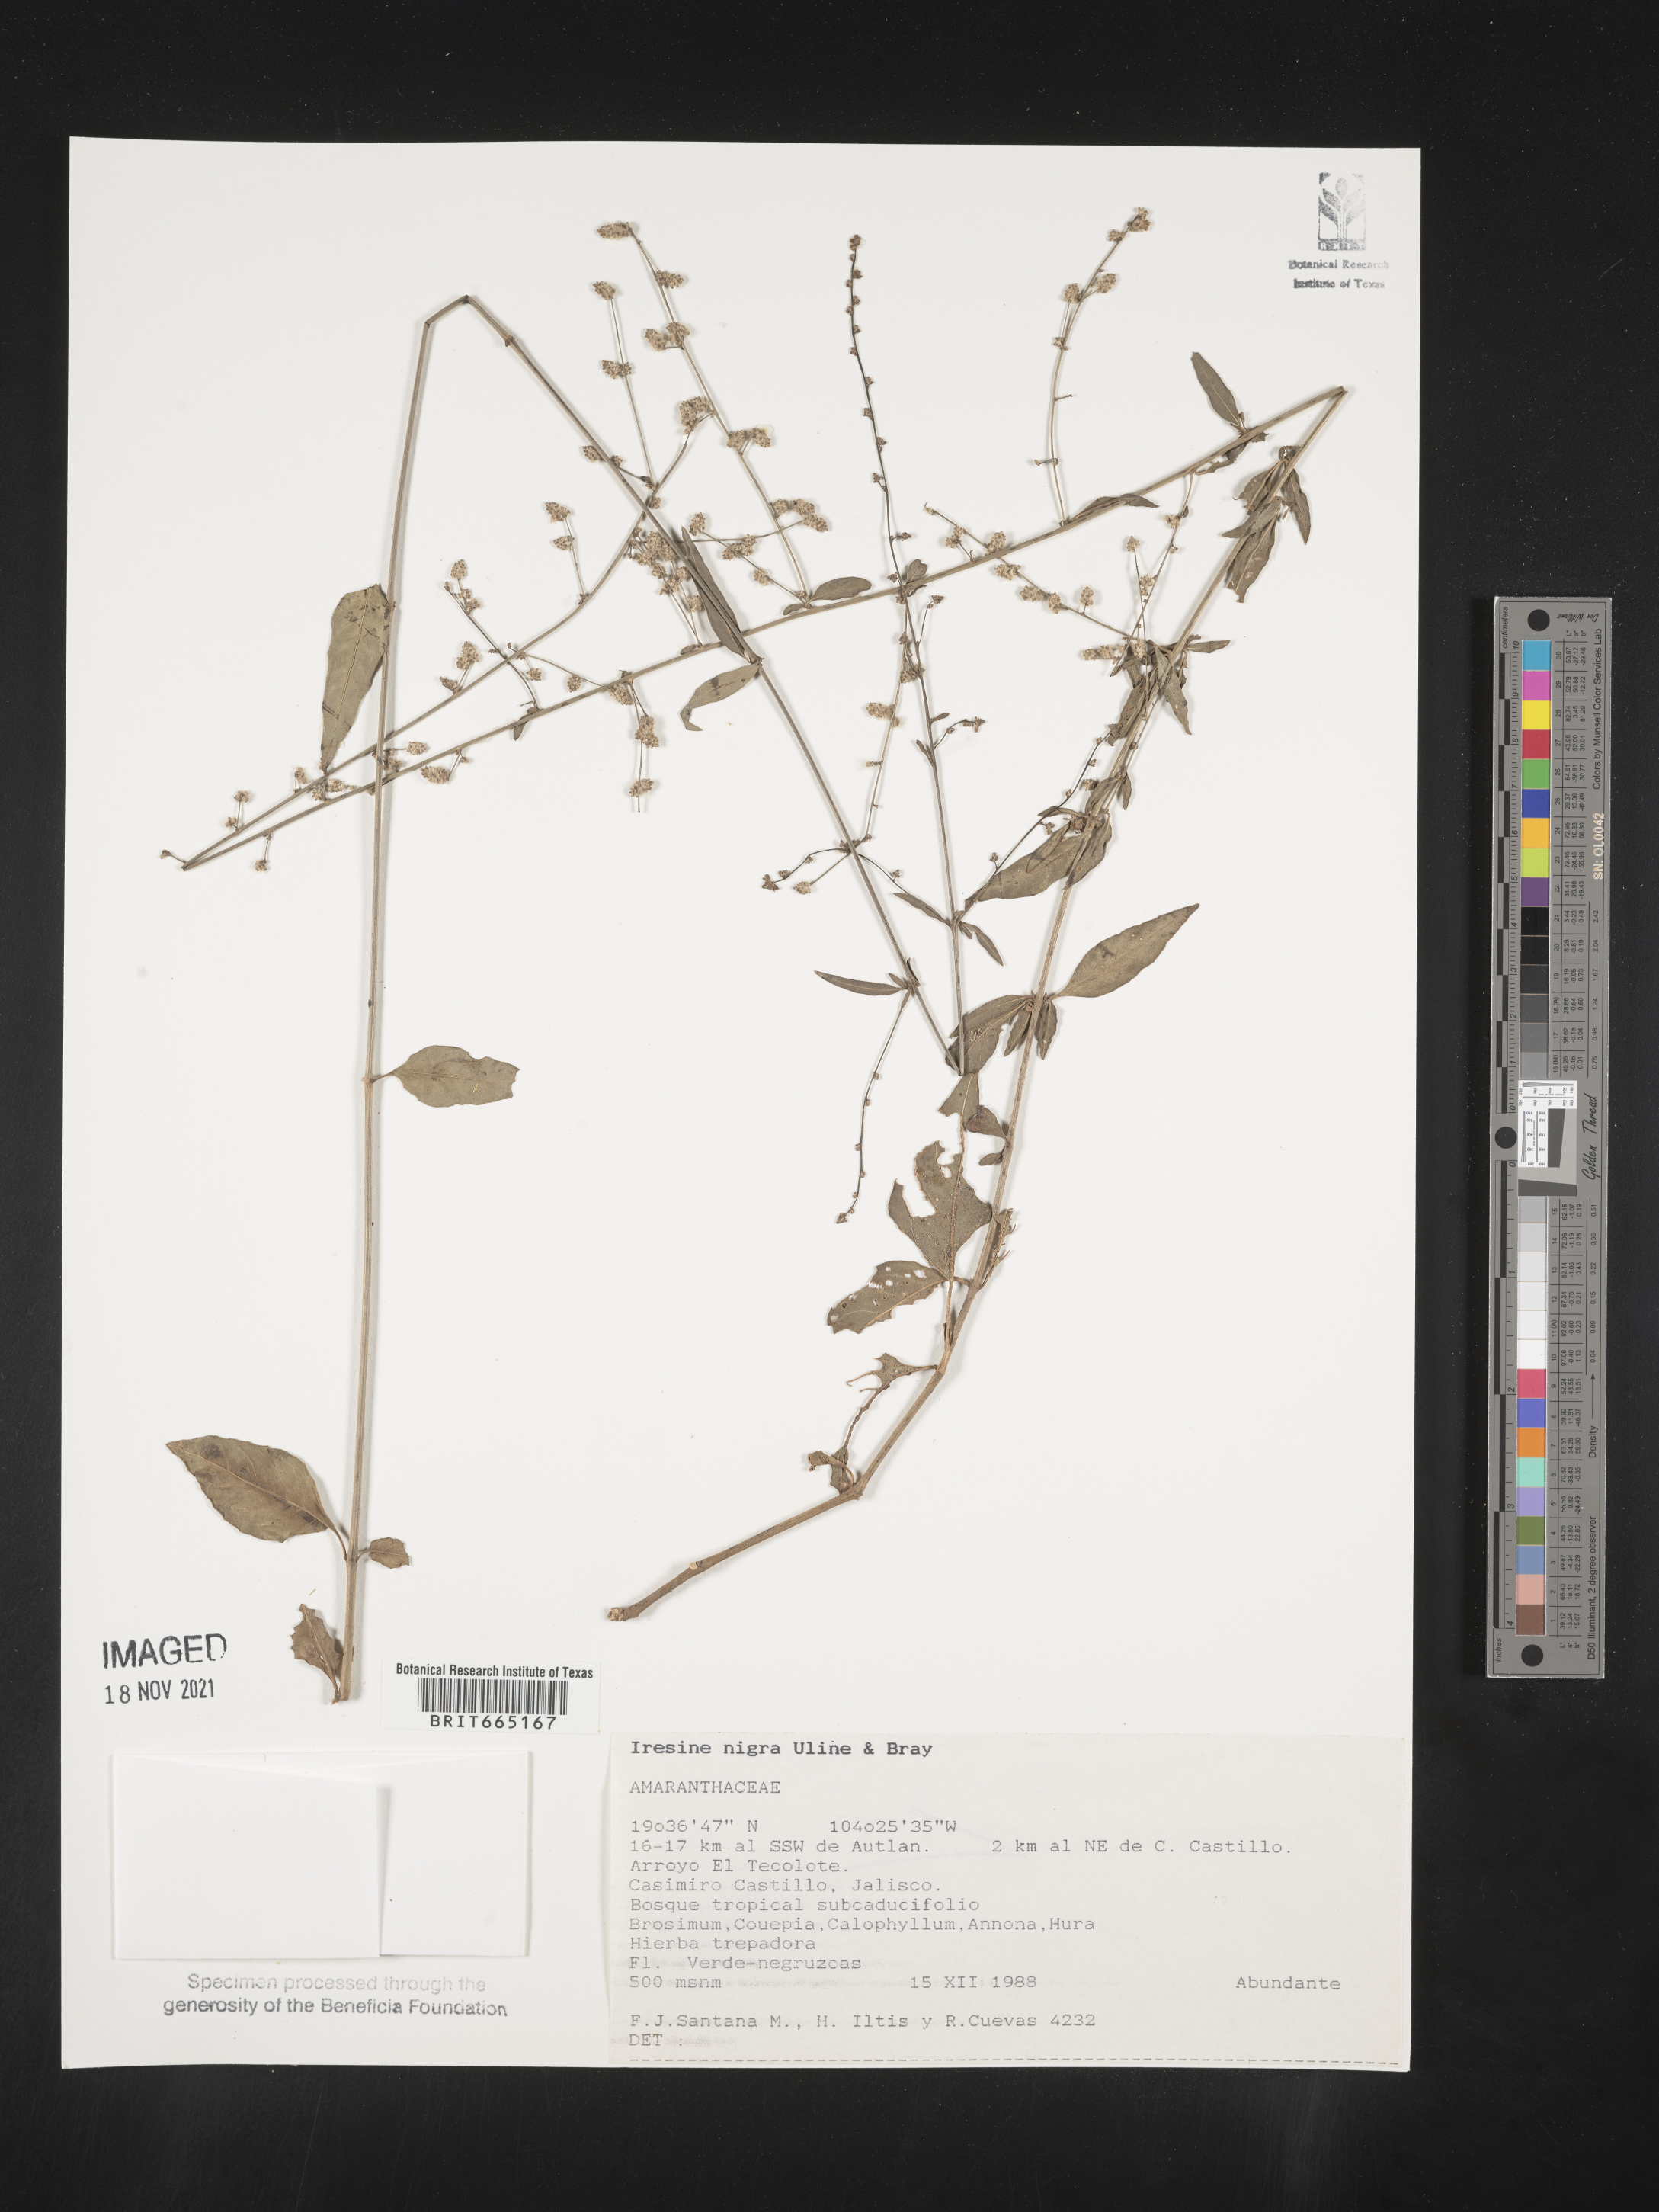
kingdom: Plantae
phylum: Tracheophyta
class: Magnoliopsida
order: Caryophyllales
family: Amaranthaceae
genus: Iresine
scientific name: Iresine
